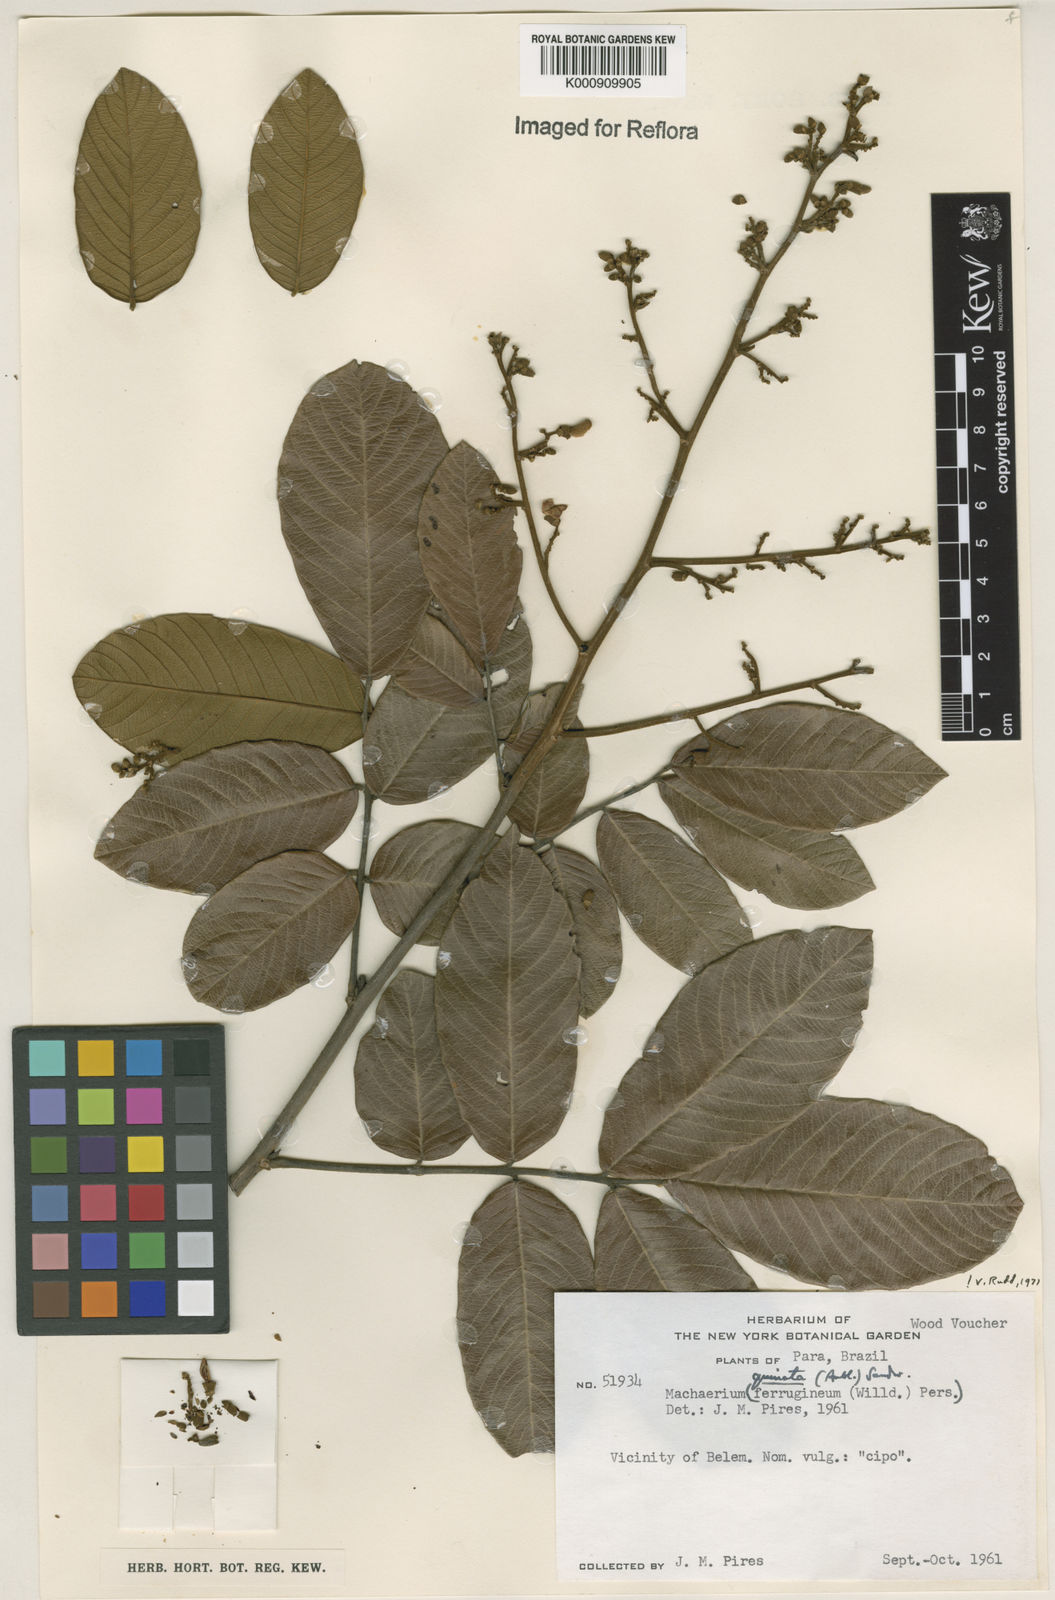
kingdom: Plantae
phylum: Tracheophyta
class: Magnoliopsida
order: Fabales
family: Fabaceae
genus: Machaerium
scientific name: Machaerium quinata
